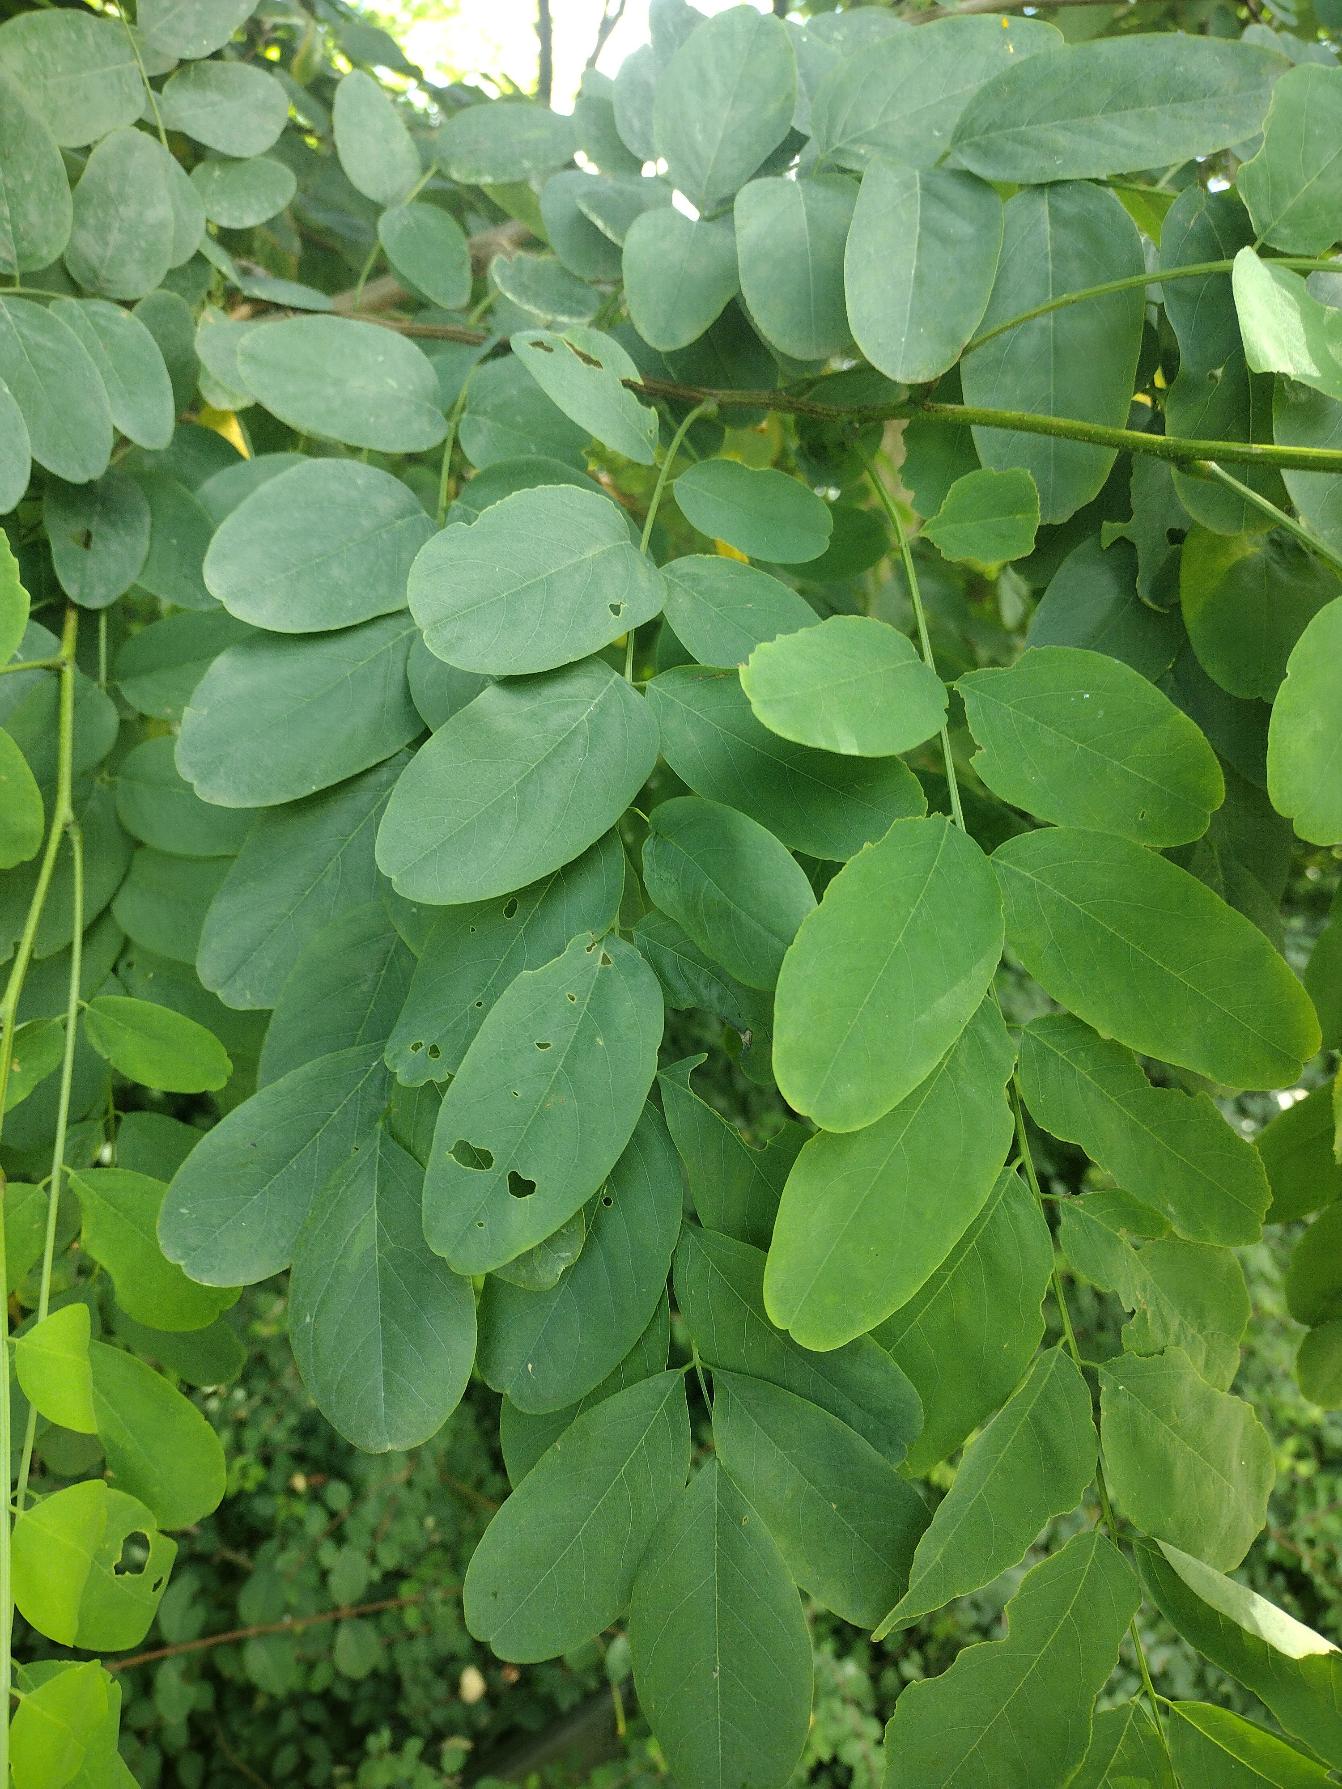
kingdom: Plantae
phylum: Tracheophyta
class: Magnoliopsida
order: Fabales
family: Fabaceae
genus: Robinia
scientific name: Robinia pseudoacacia
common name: Robinie
